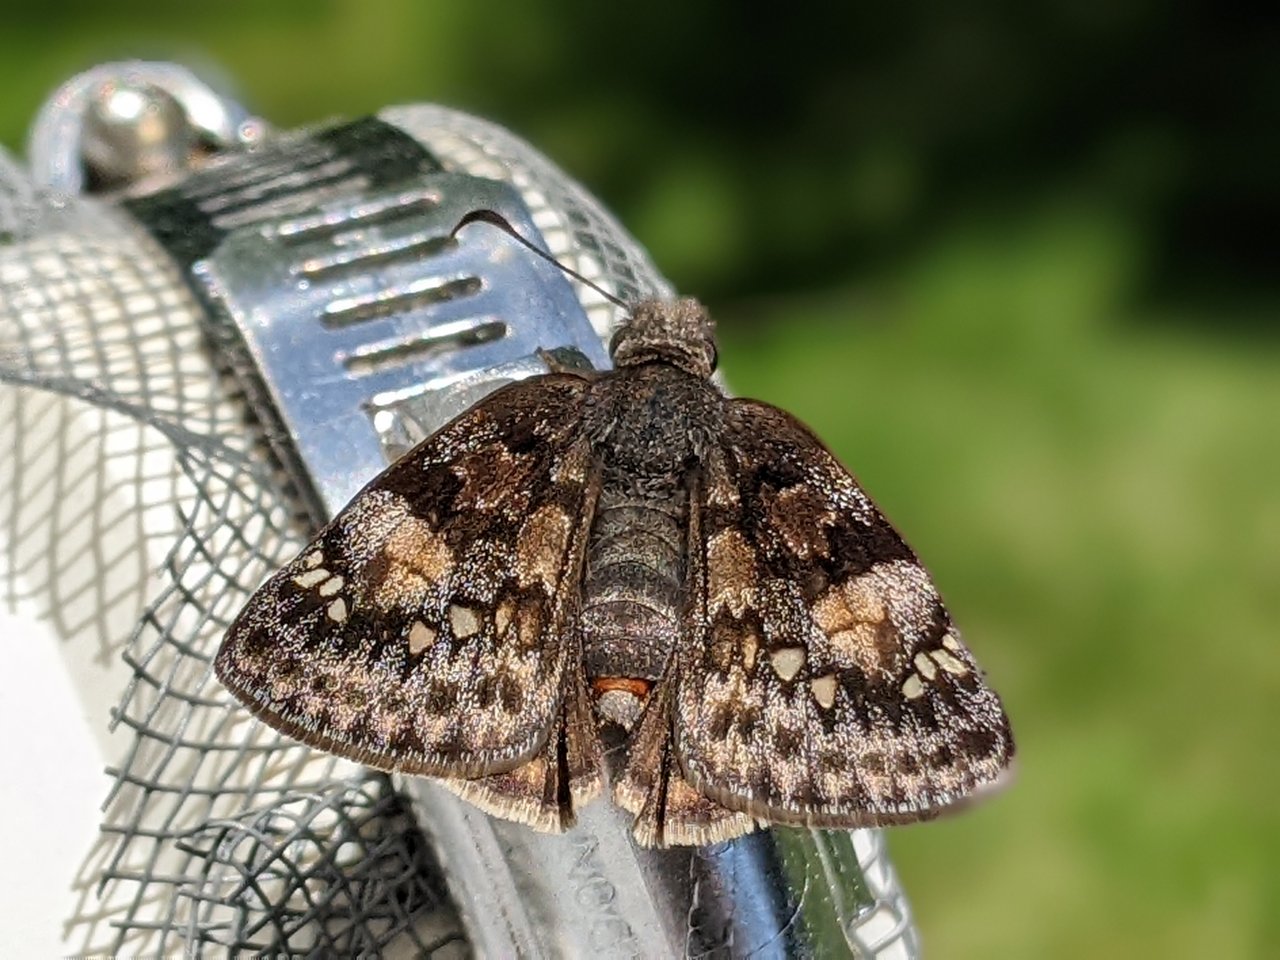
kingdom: Animalia
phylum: Arthropoda
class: Insecta
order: Lepidoptera
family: Hesperiidae
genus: Gesta
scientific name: Gesta
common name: Juvenal's Duskywing
